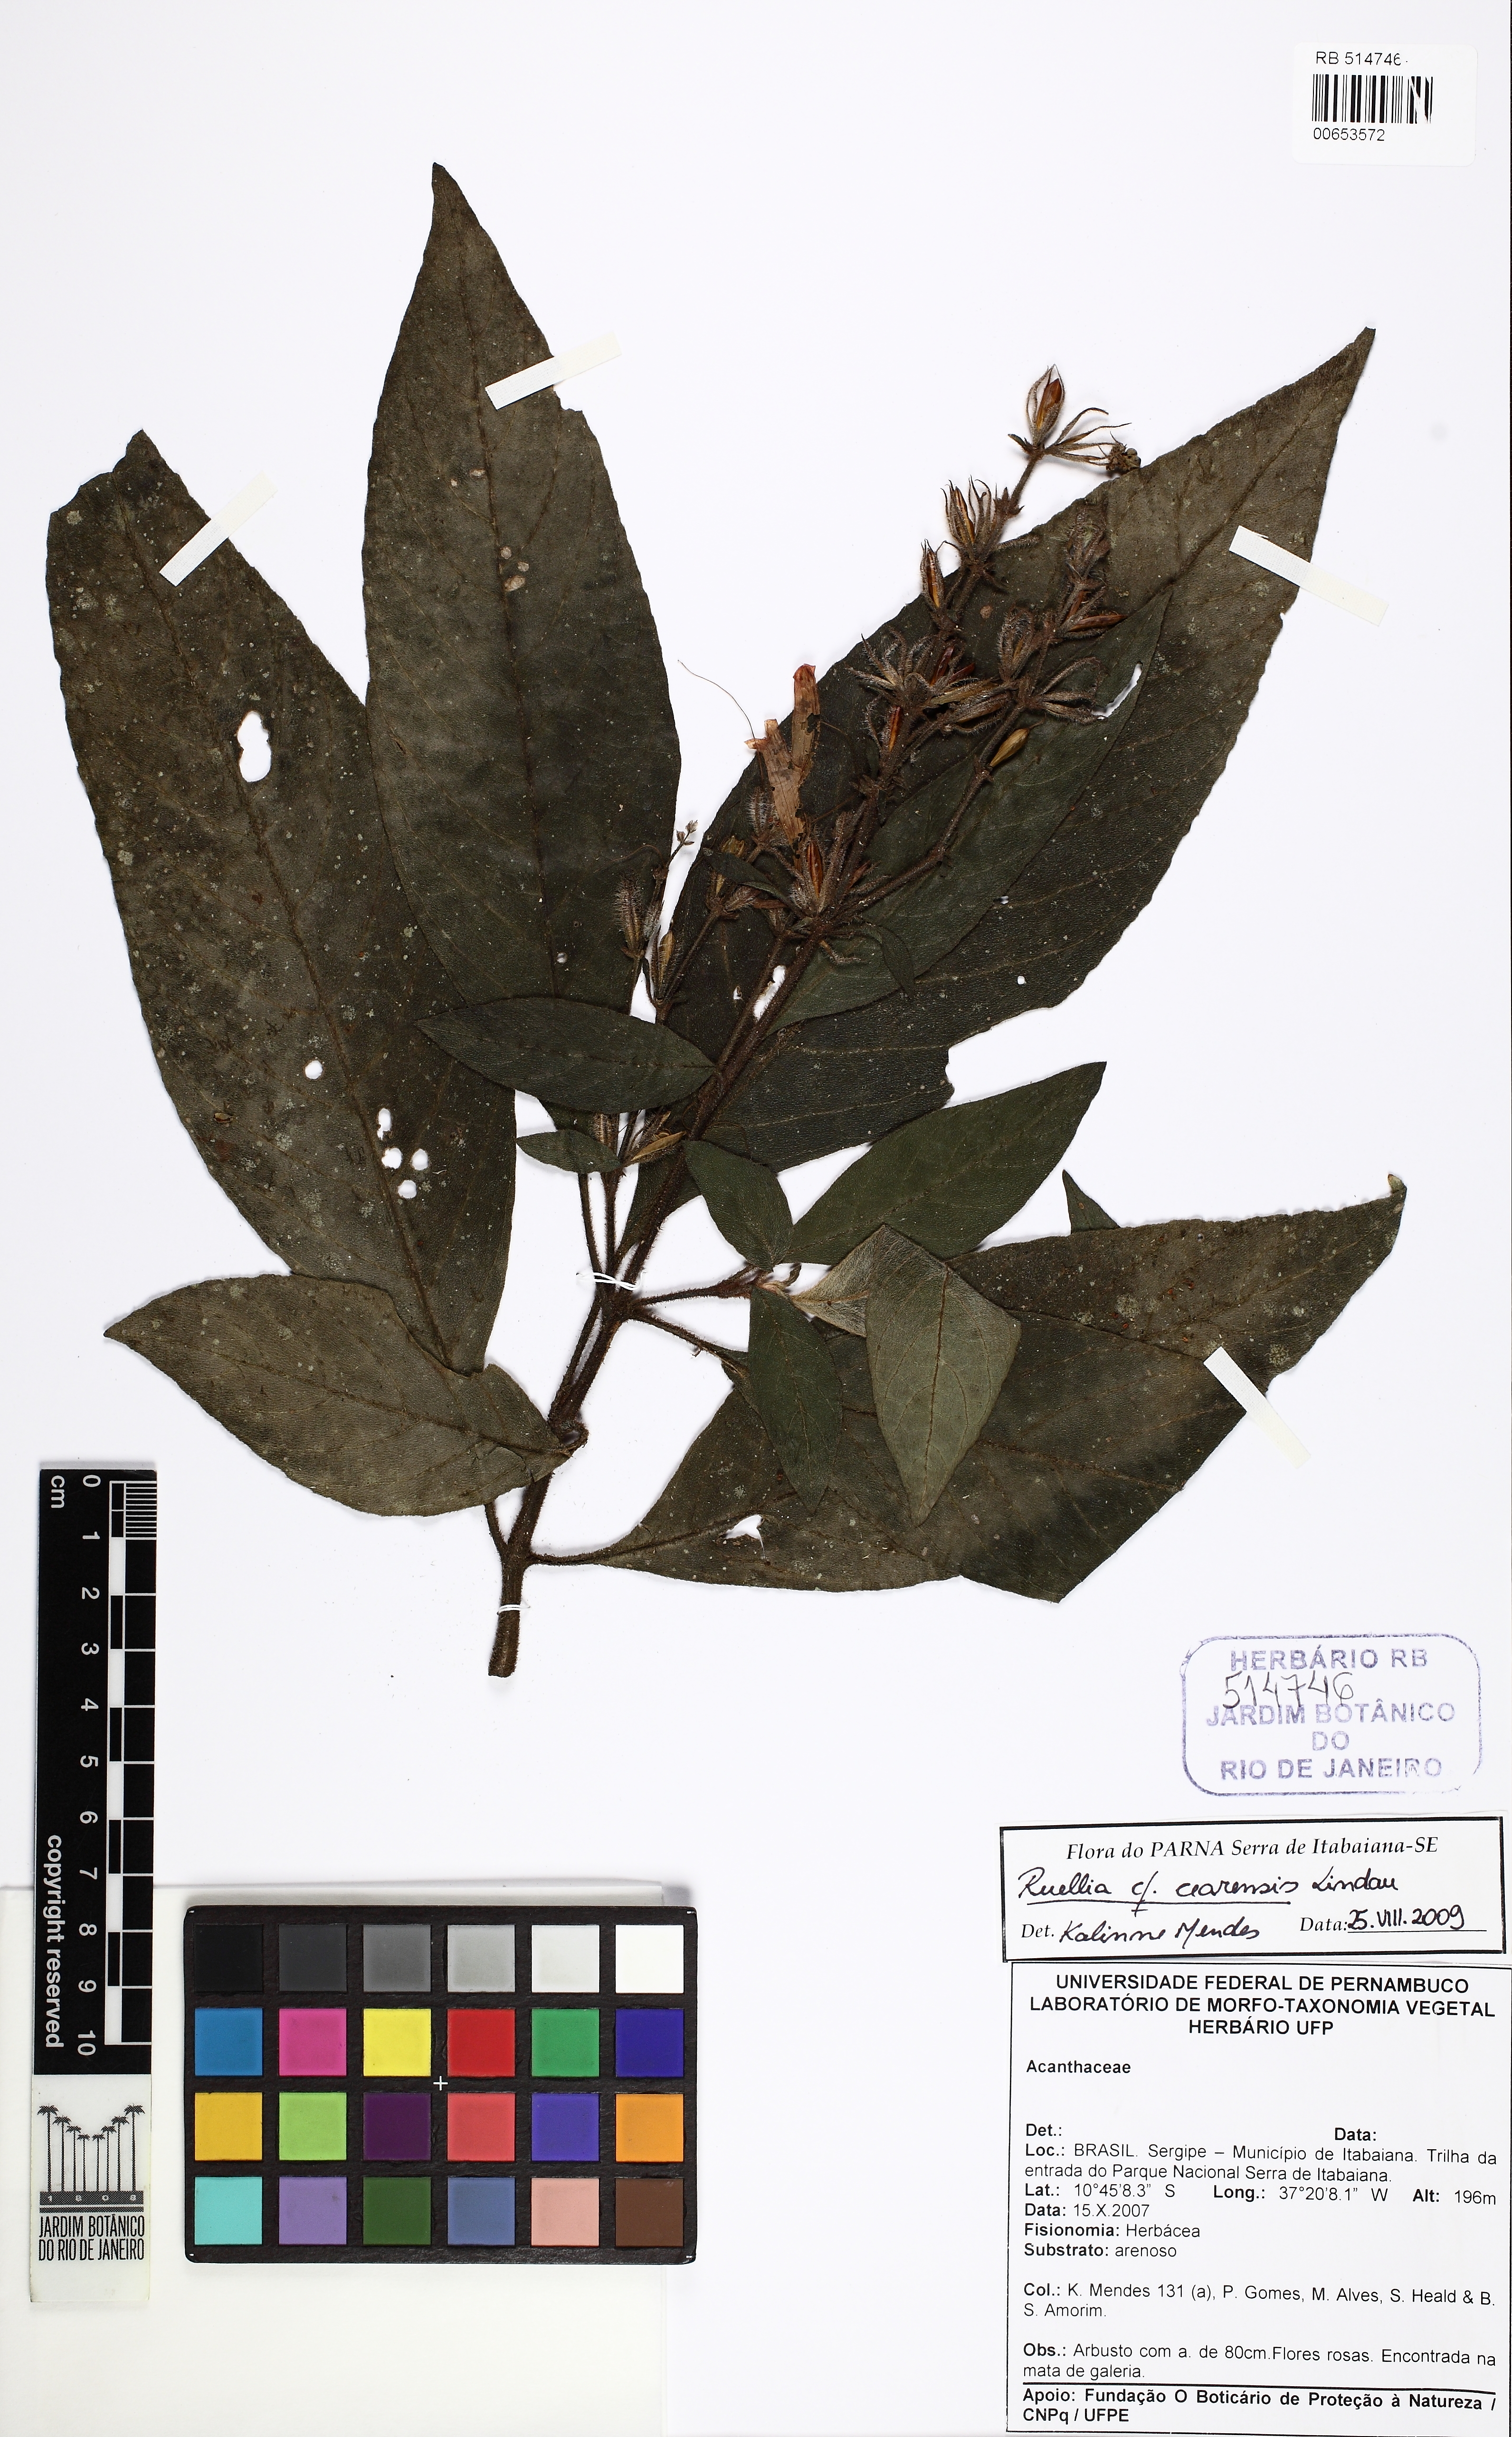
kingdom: Plantae
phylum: Tracheophyta
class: Magnoliopsida
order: Lamiales
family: Acanthaceae
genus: Ruellia
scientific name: Ruellia cearensis
